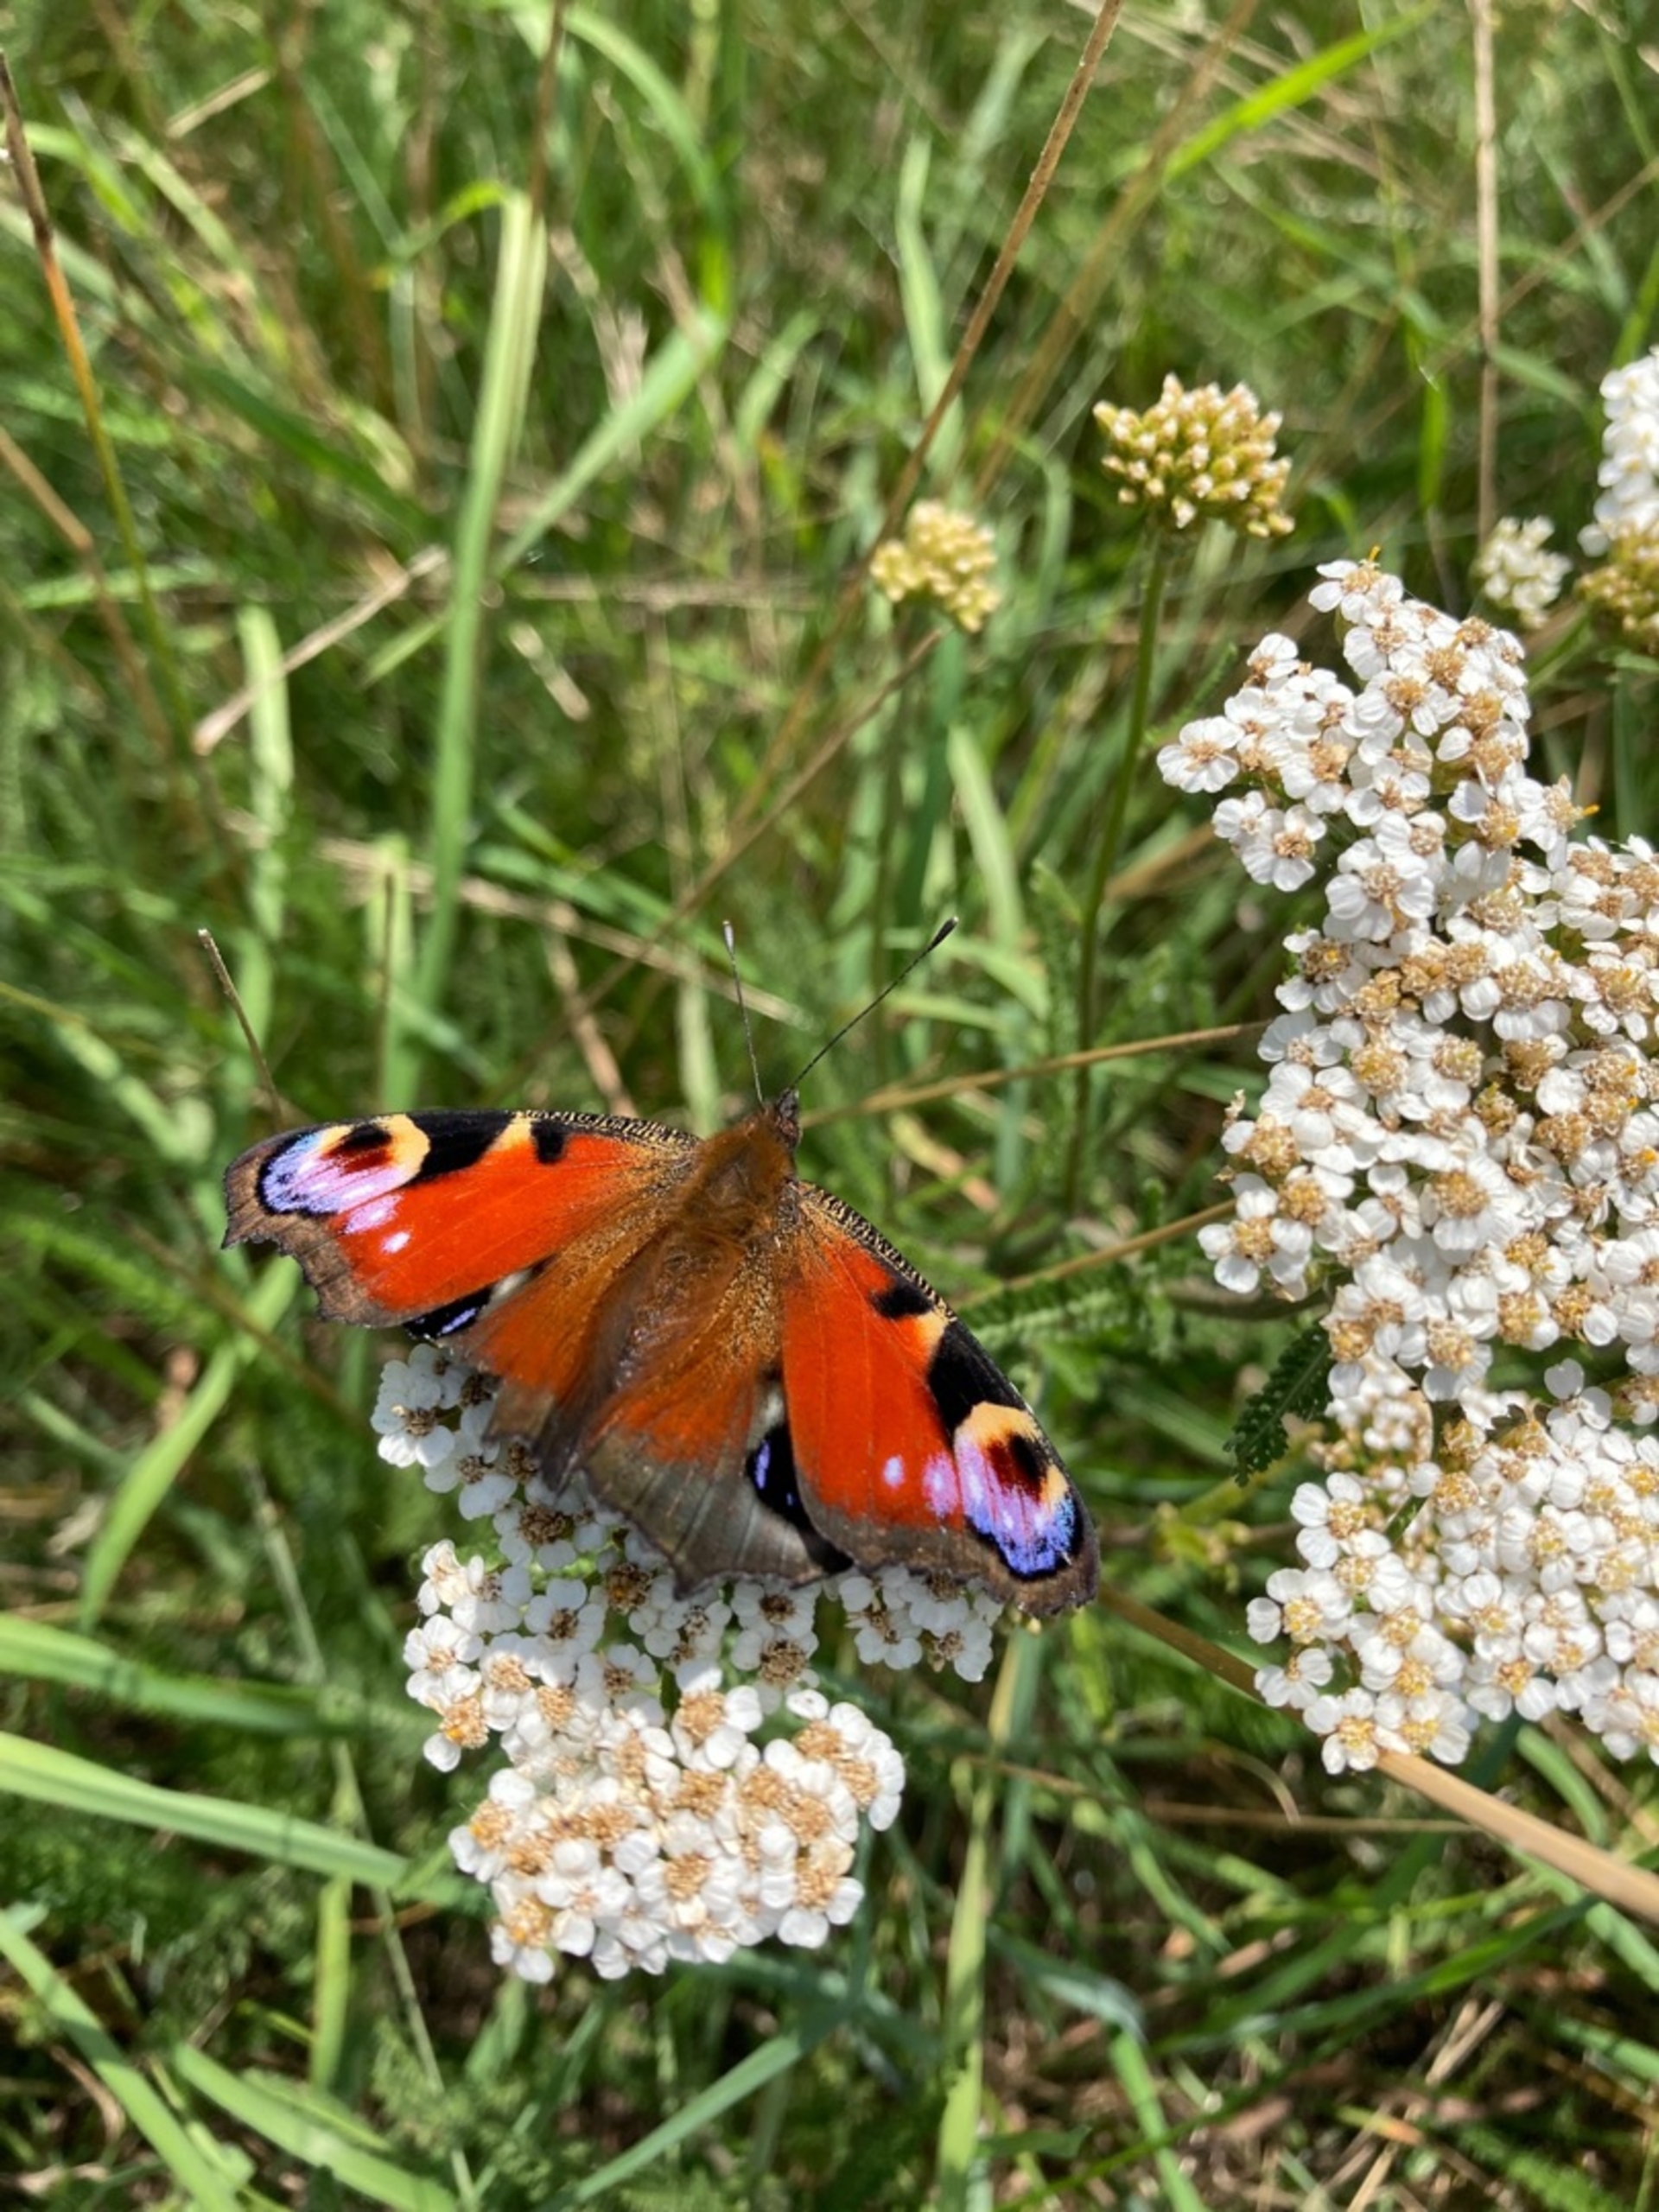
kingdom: Animalia
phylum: Arthropoda
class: Insecta
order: Lepidoptera
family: Nymphalidae
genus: Aglais
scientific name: Aglais io
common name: Dagpåfugleøje
